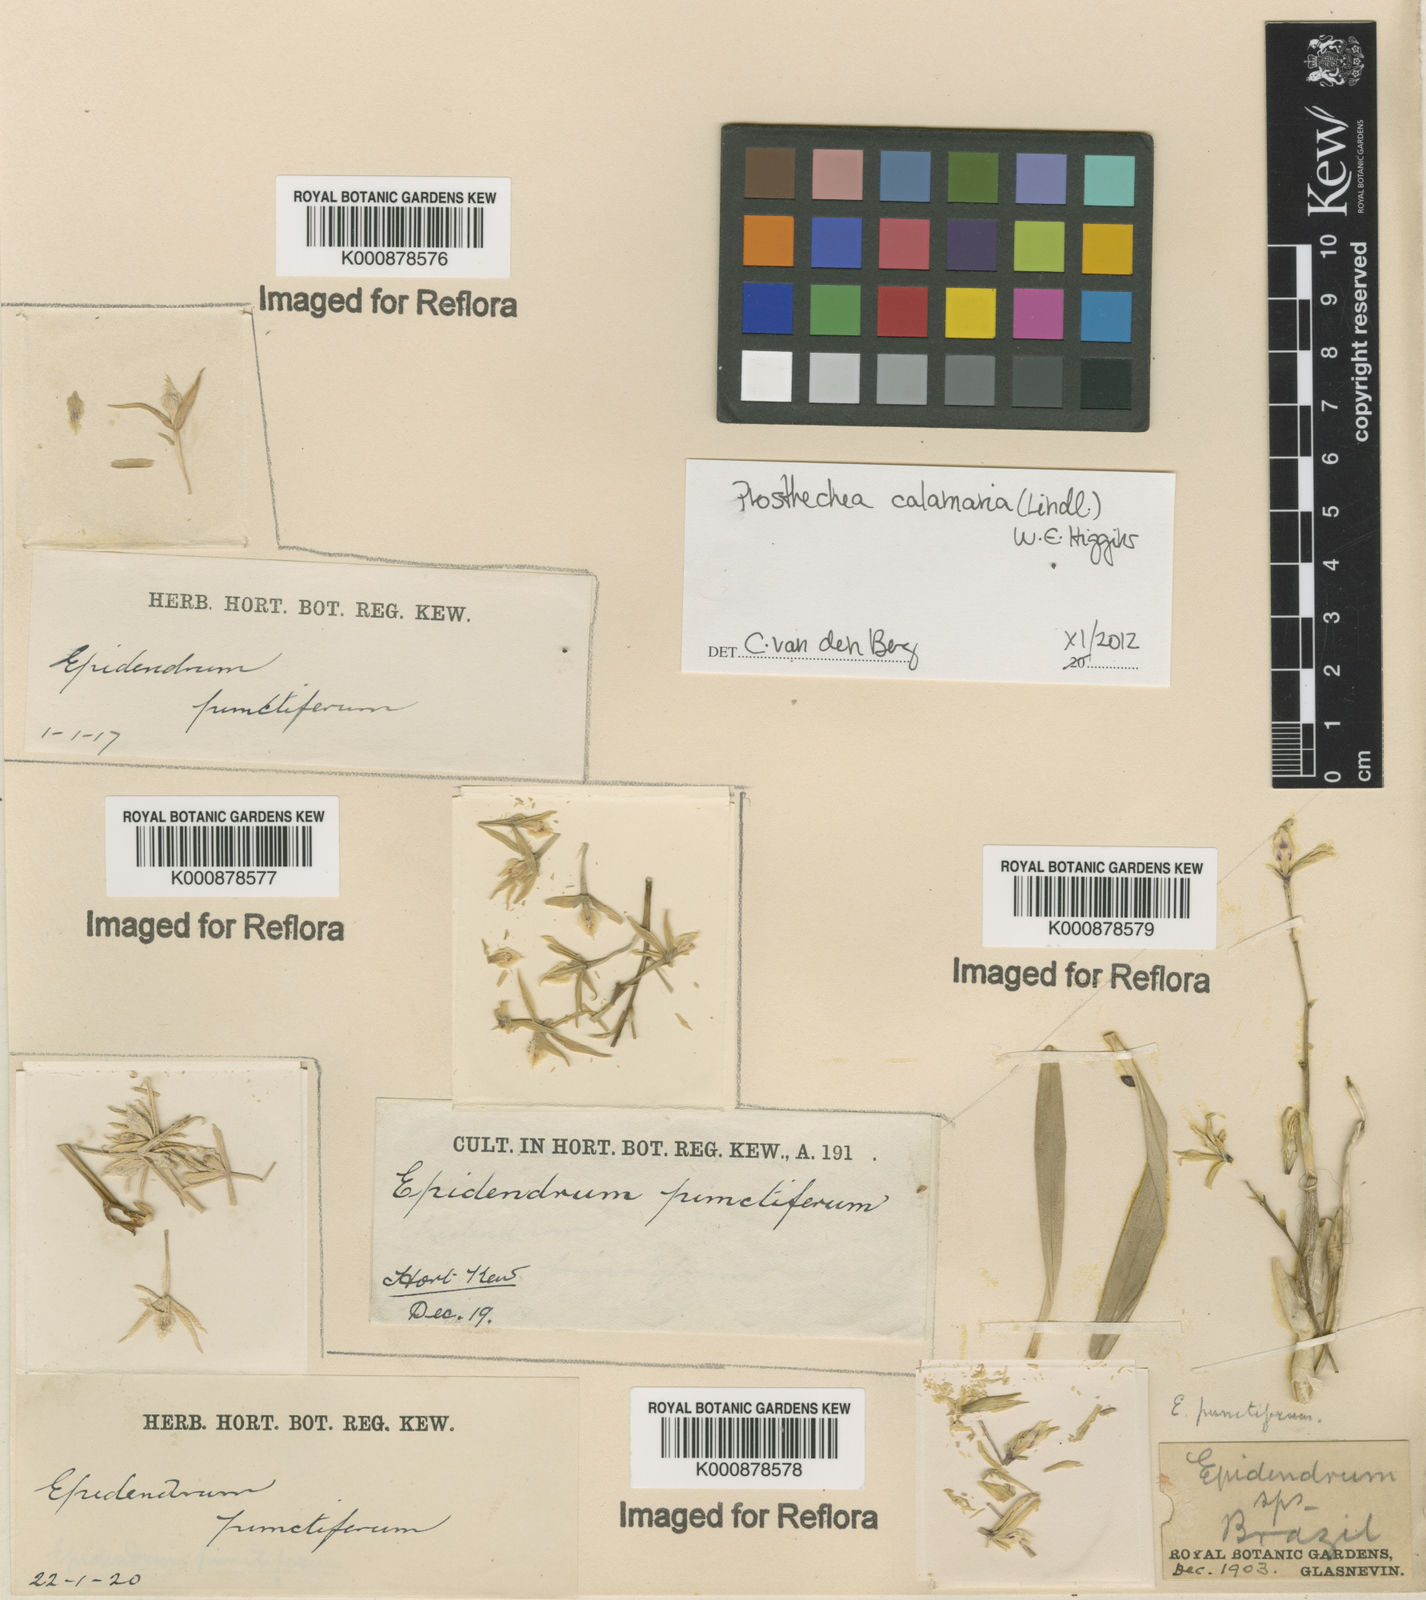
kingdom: Plantae
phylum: Tracheophyta
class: Liliopsida
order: Asparagales
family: Orchidaceae
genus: Prosthechea
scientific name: Prosthechea calamaria
